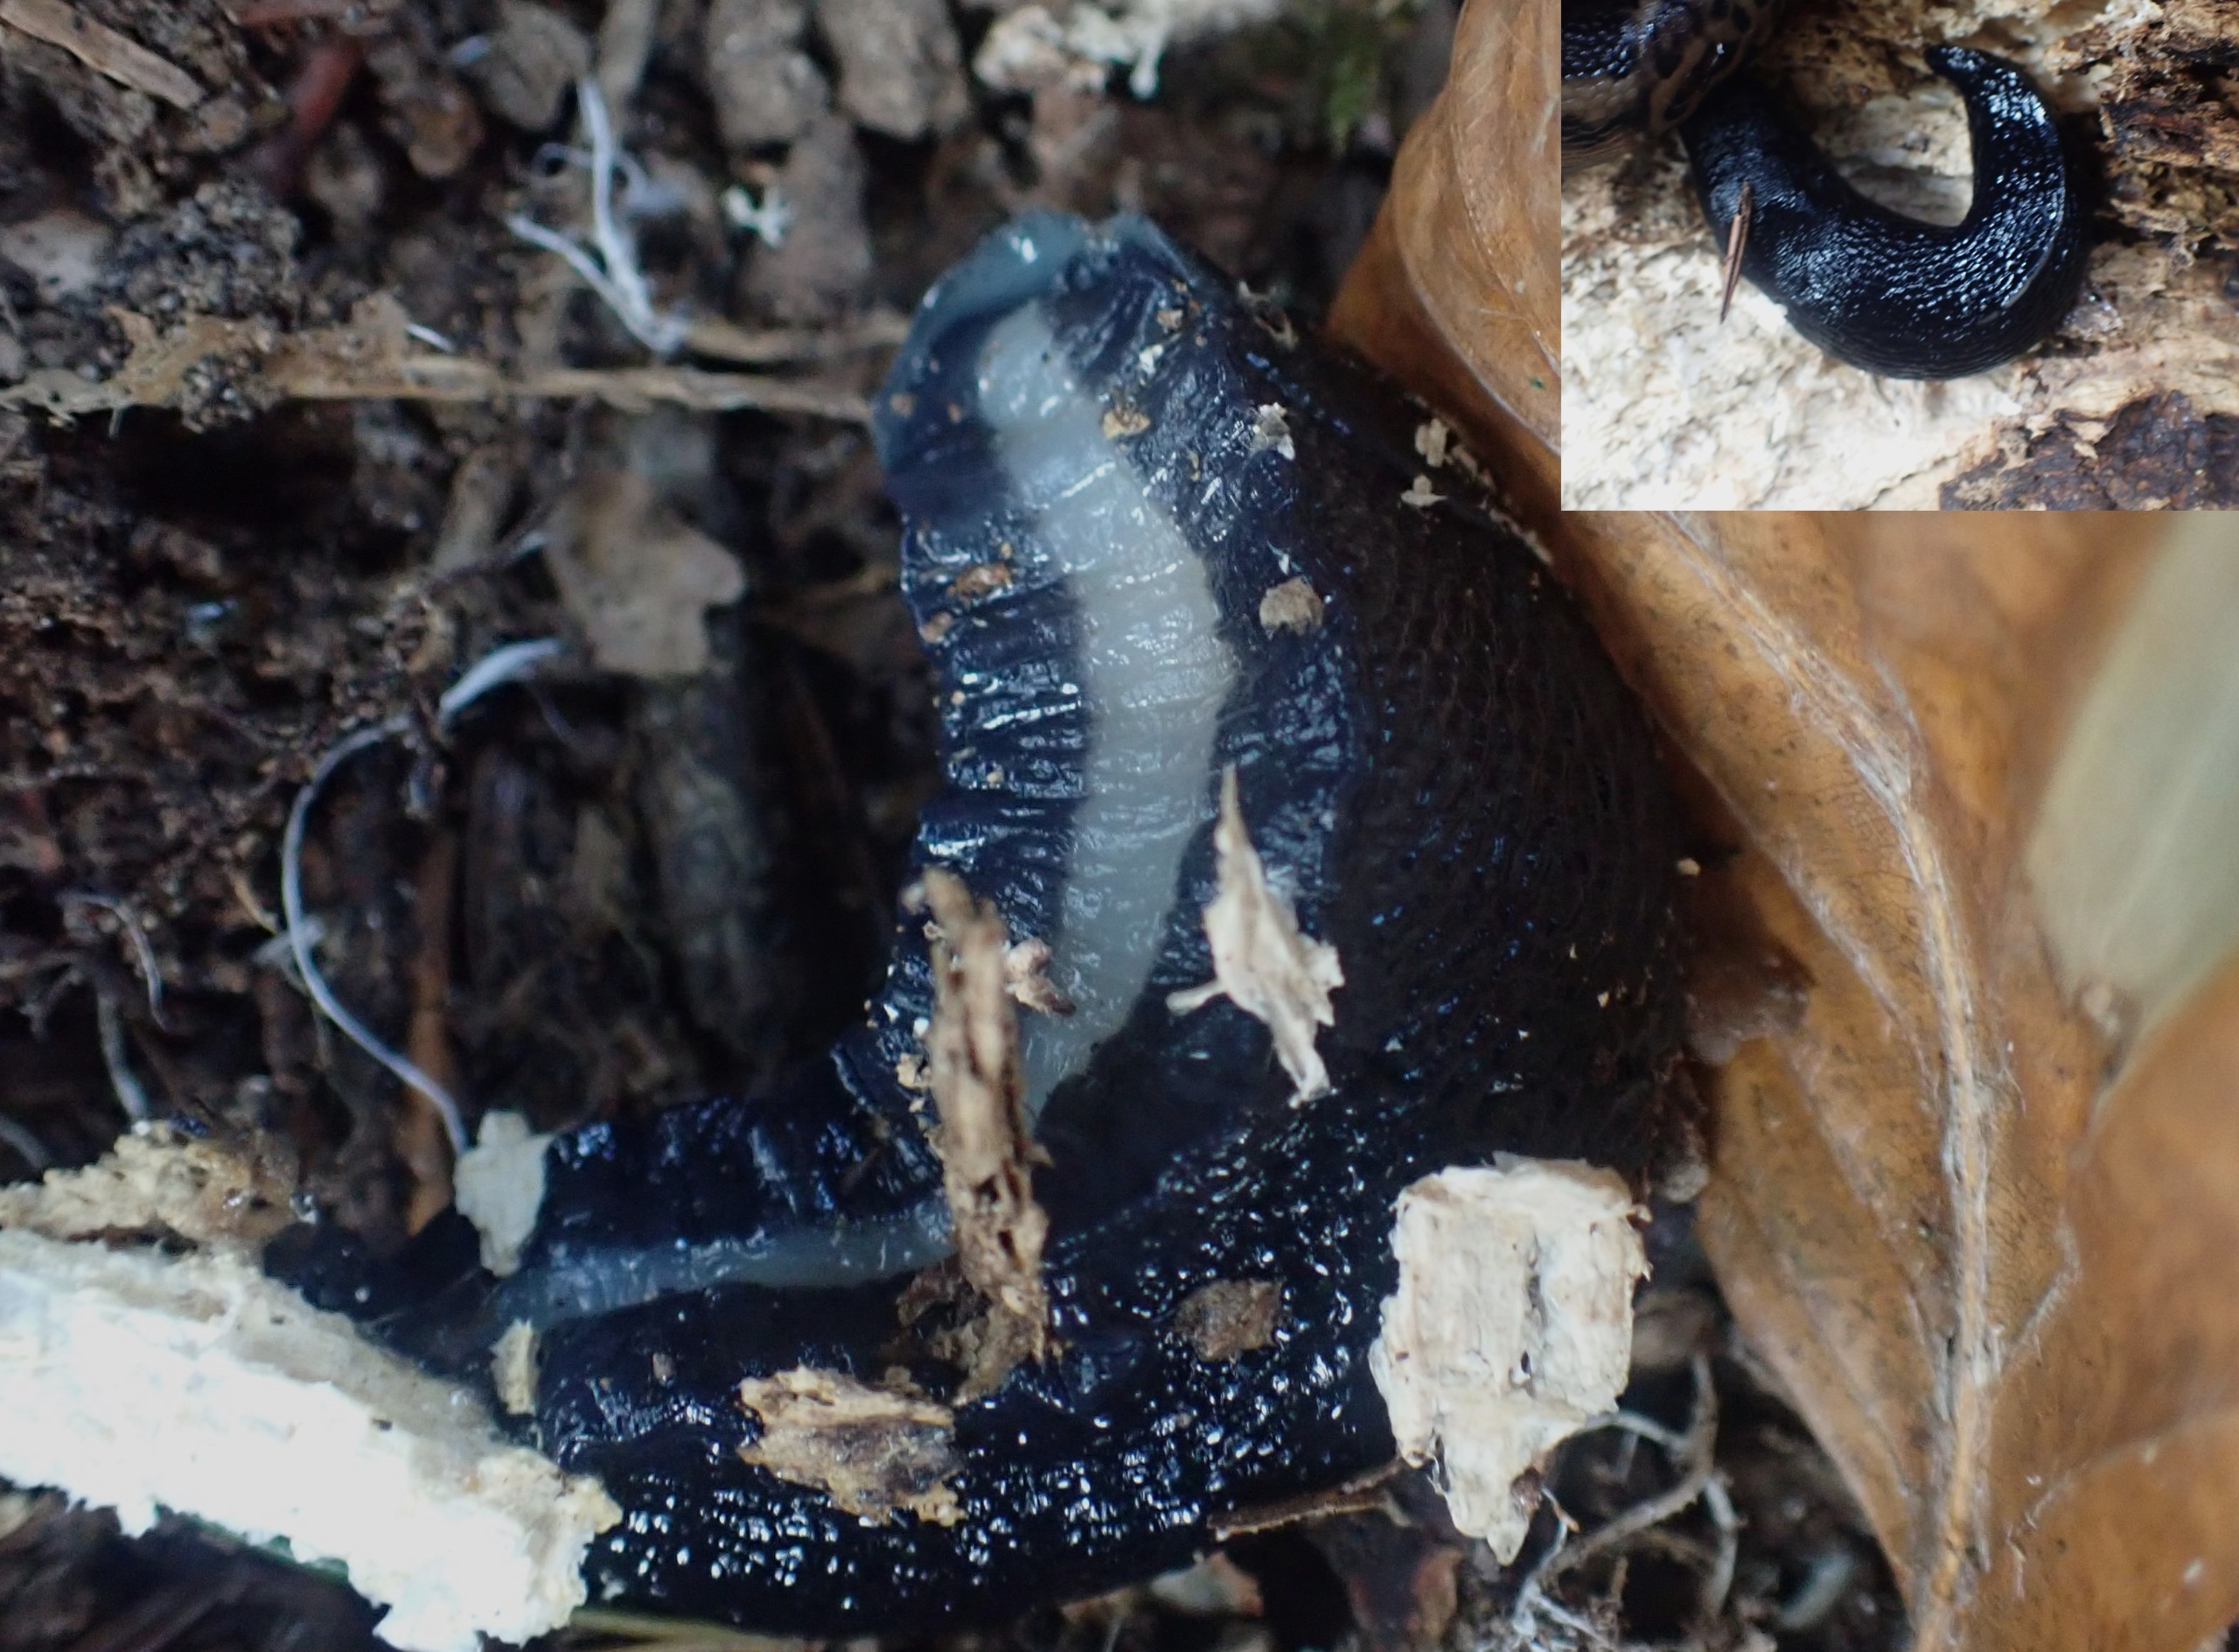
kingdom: Animalia
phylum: Mollusca
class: Gastropoda
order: Stylommatophora
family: Limacidae
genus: Limax
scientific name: Limax cinereoniger
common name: Skovpantersnegl
